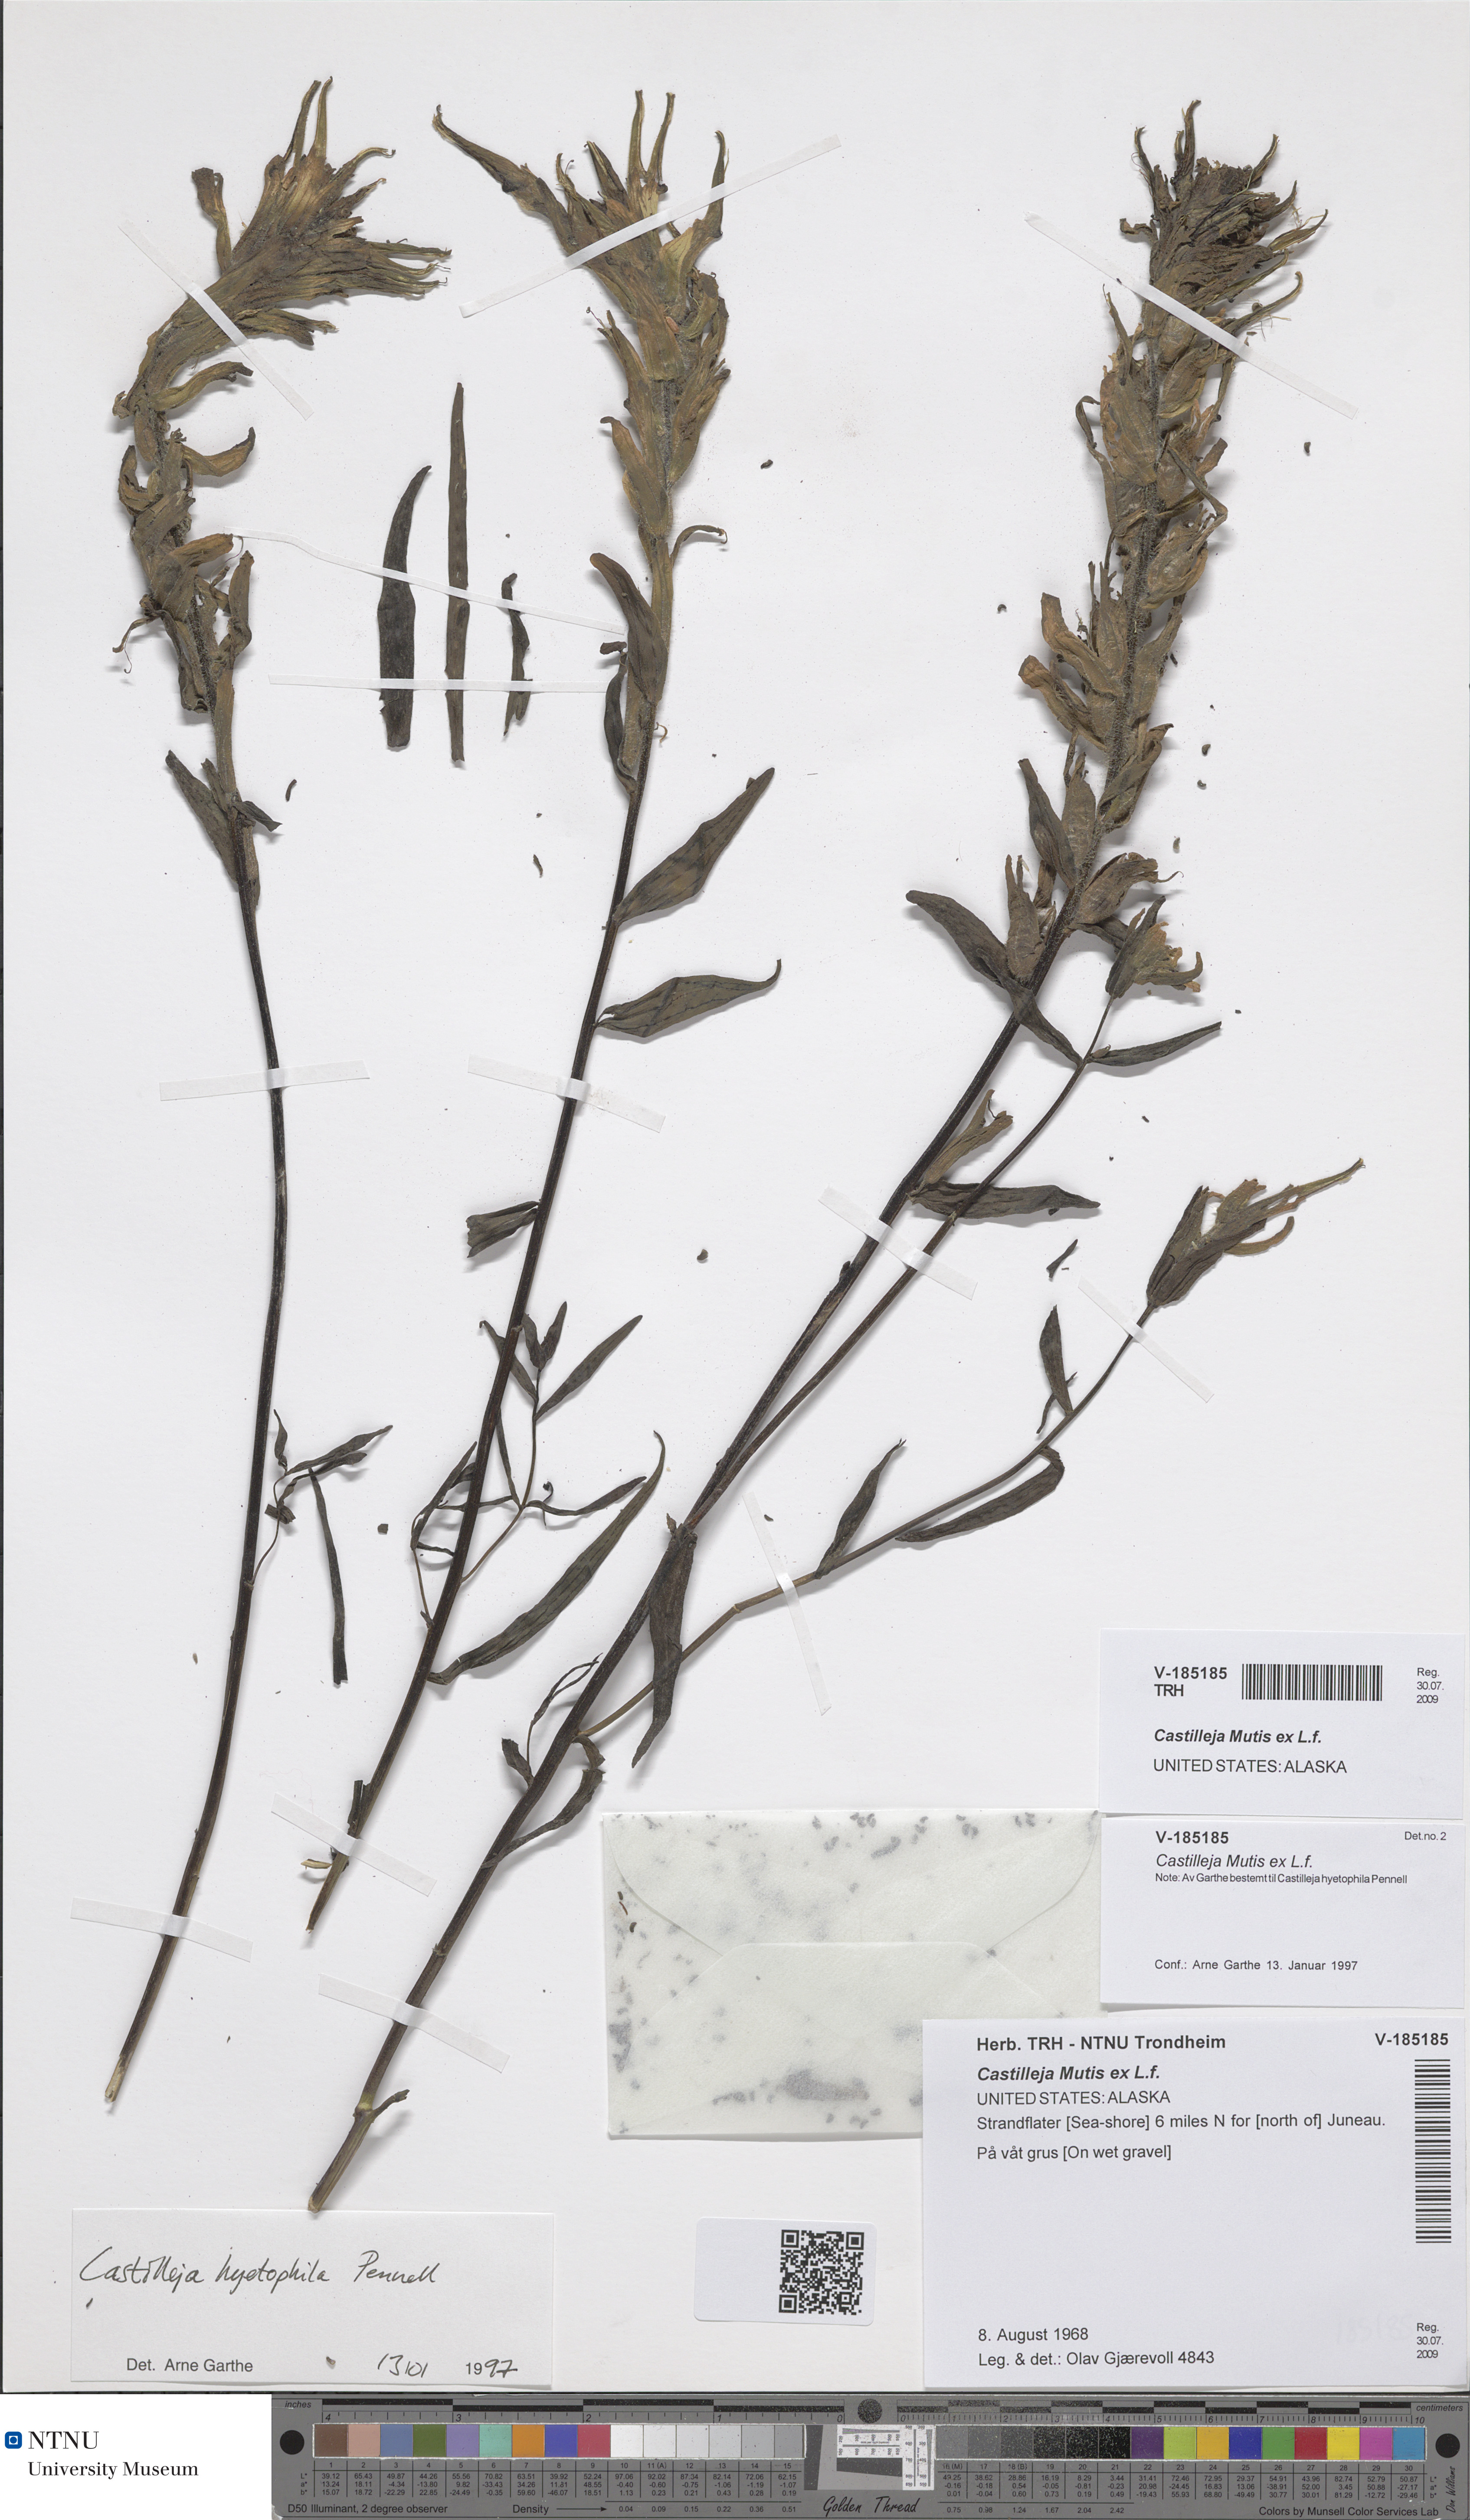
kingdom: Plantae
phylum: Tracheophyta
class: Magnoliopsida
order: Lamiales
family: Orobanchaceae
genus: Castilleja
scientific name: Castilleja
